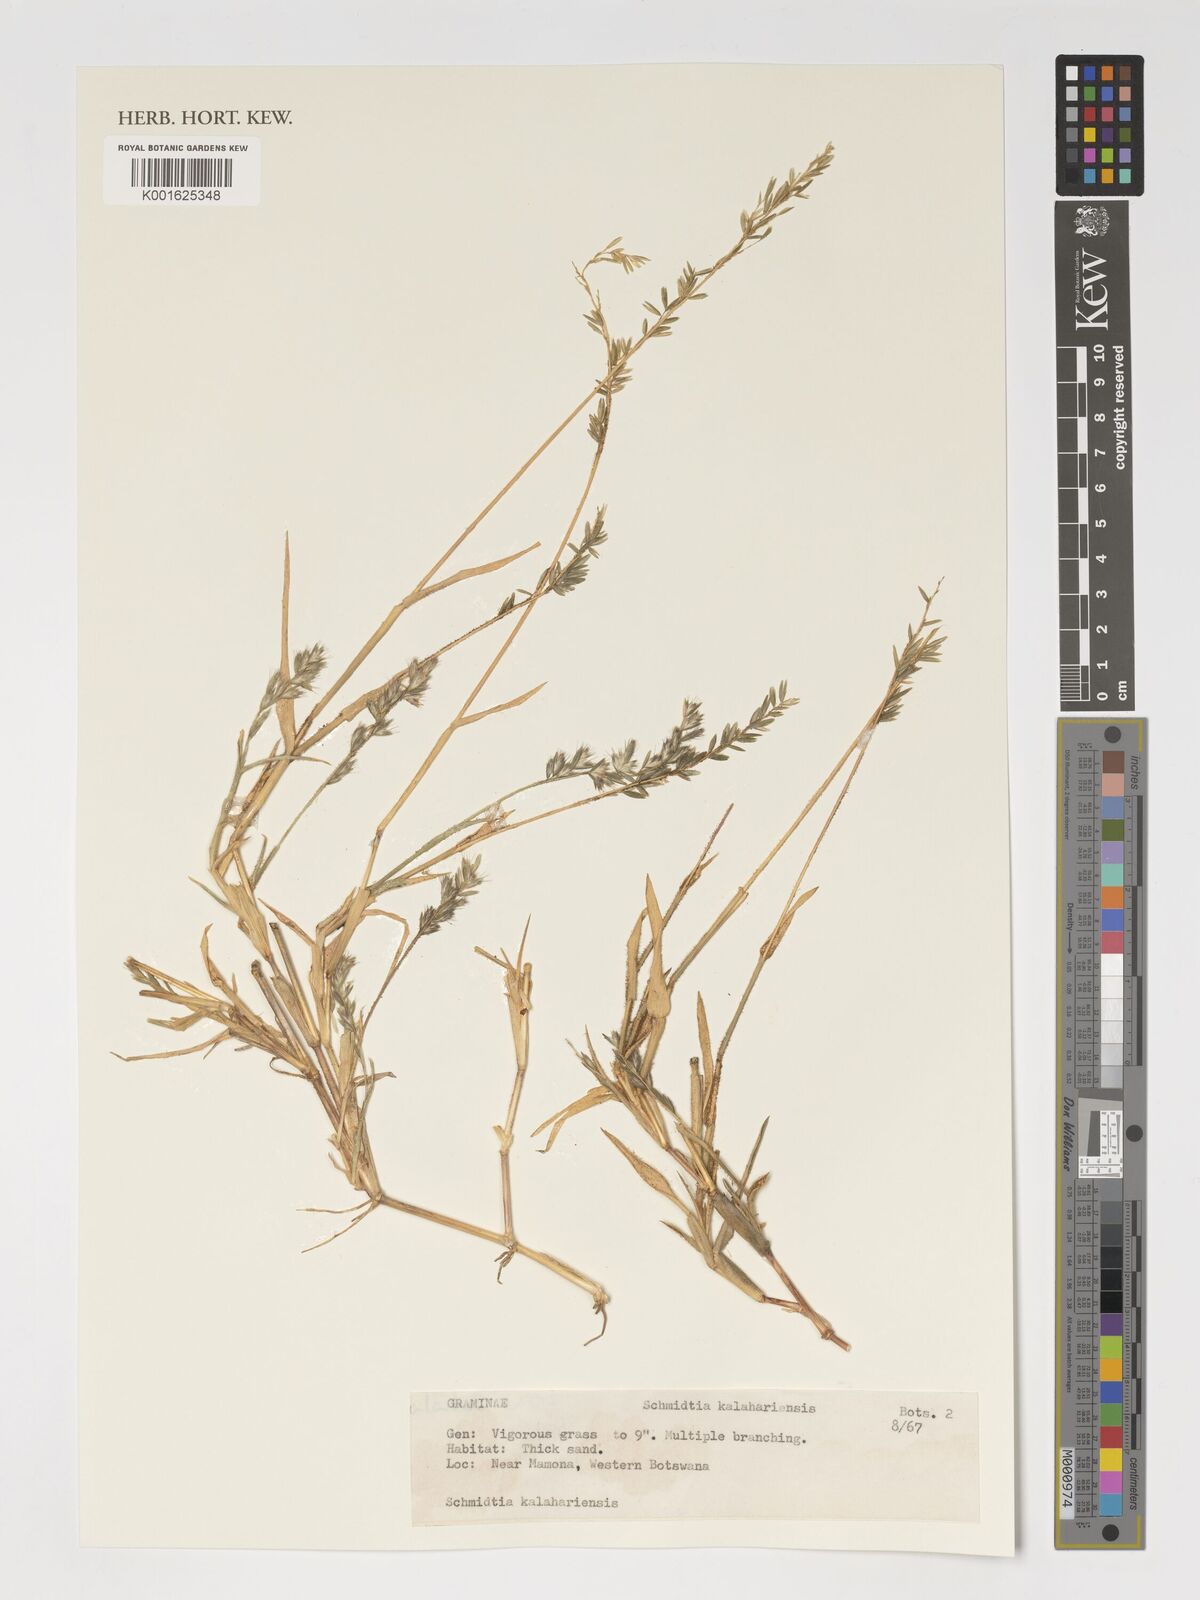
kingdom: Plantae
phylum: Tracheophyta
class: Liliopsida
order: Poales
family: Poaceae
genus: Schmidtia
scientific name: Schmidtia kalahariensis
